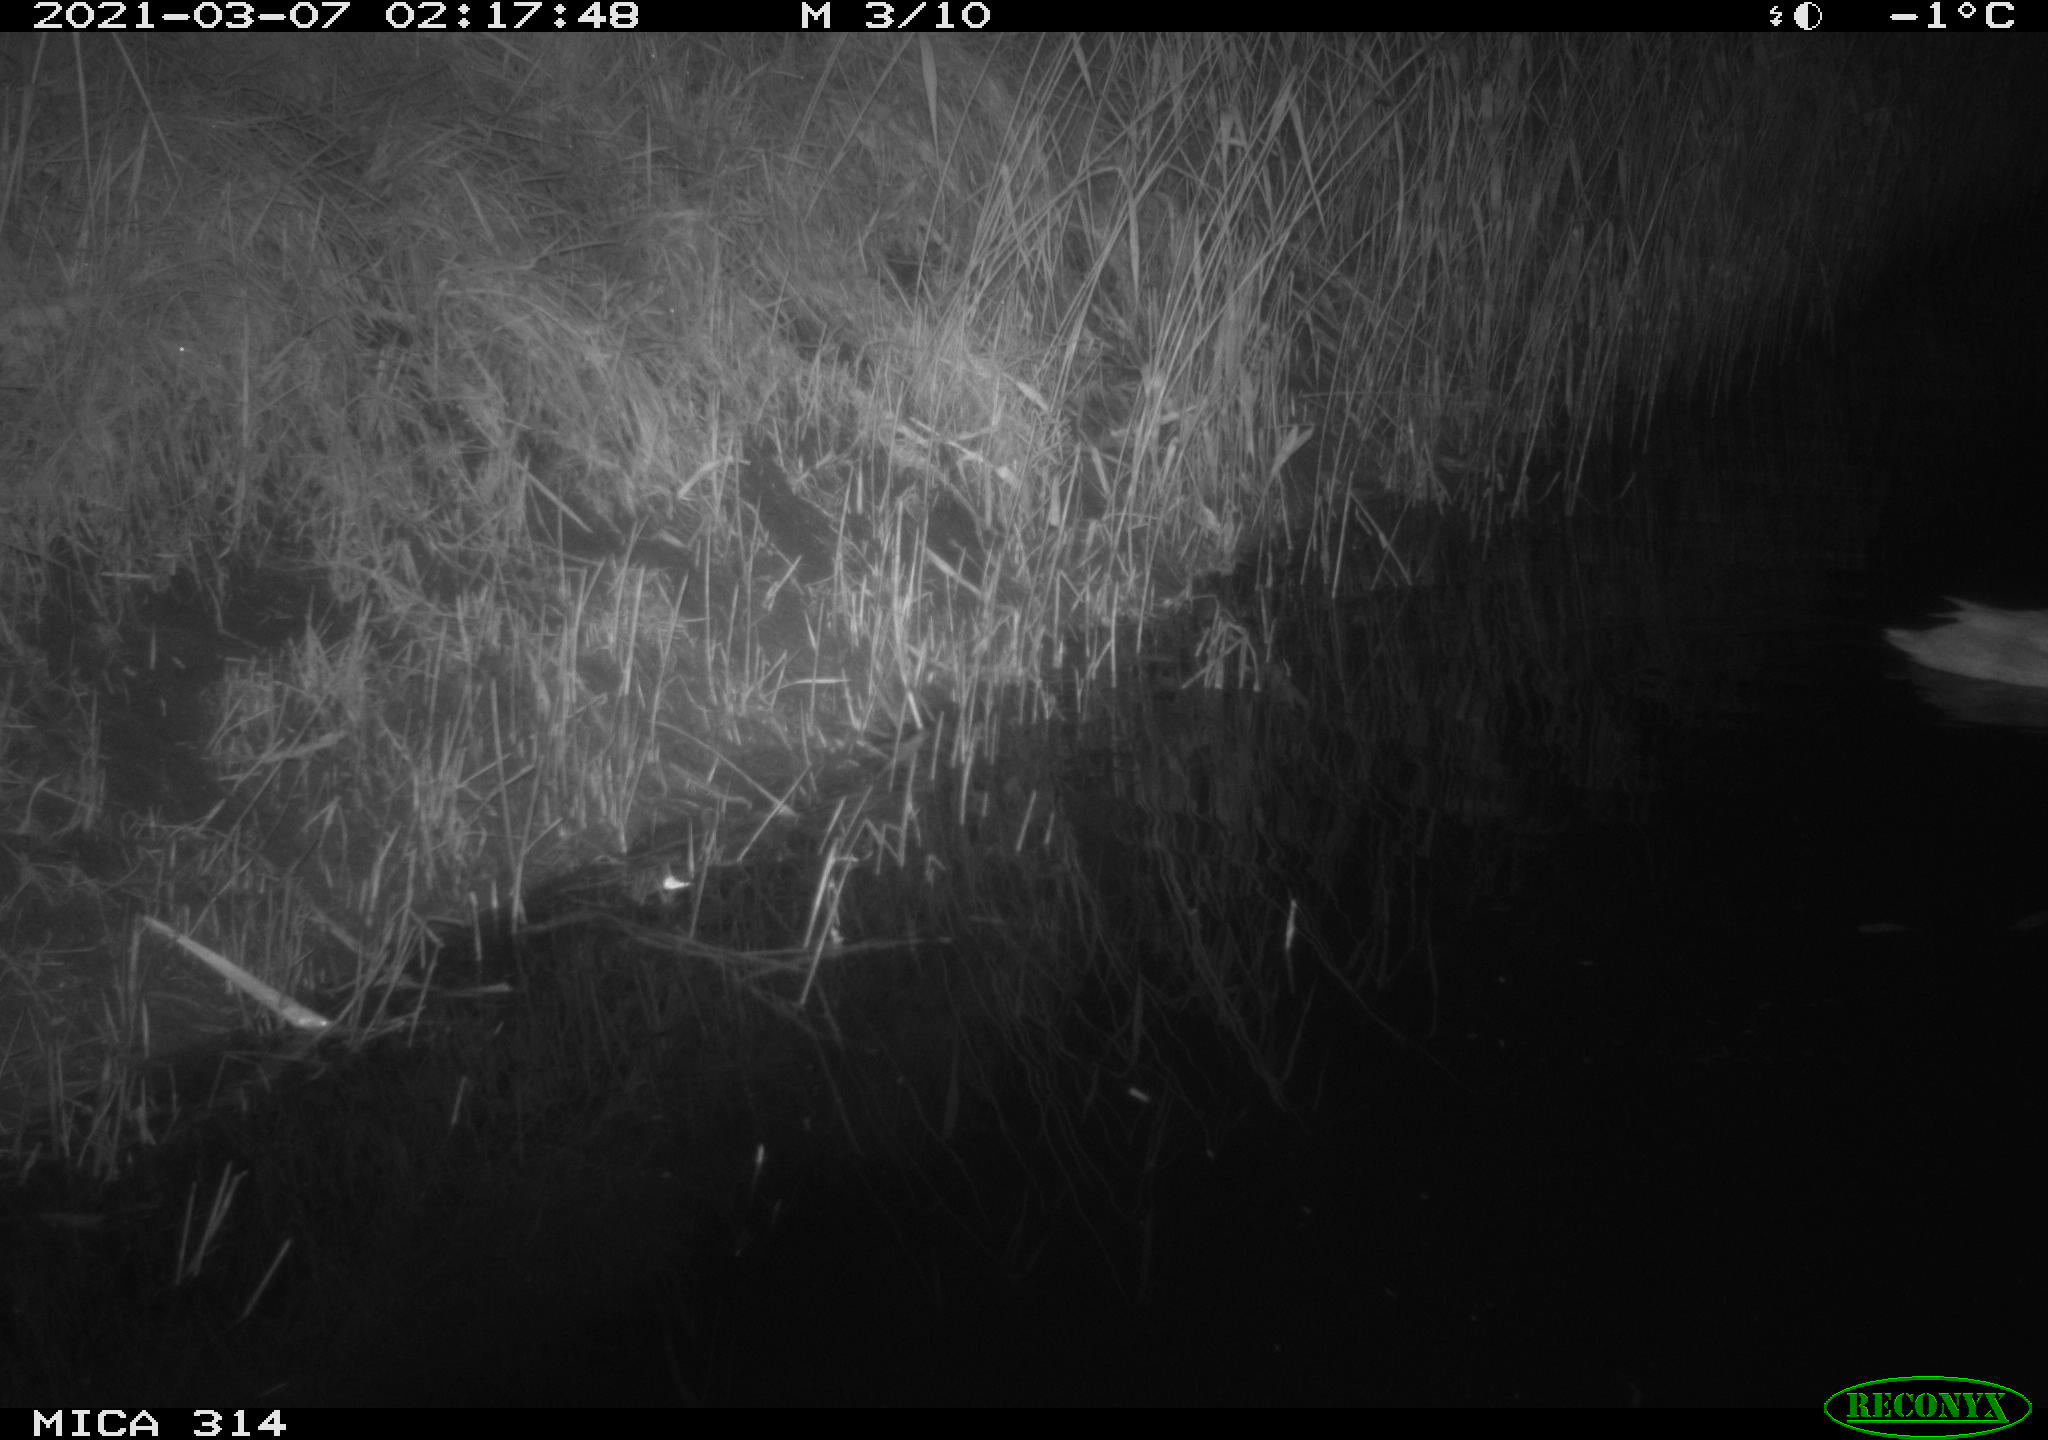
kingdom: Animalia
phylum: Chordata
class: Aves
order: Anseriformes
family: Anatidae
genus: Anas
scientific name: Anas platyrhynchos
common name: Mallard
